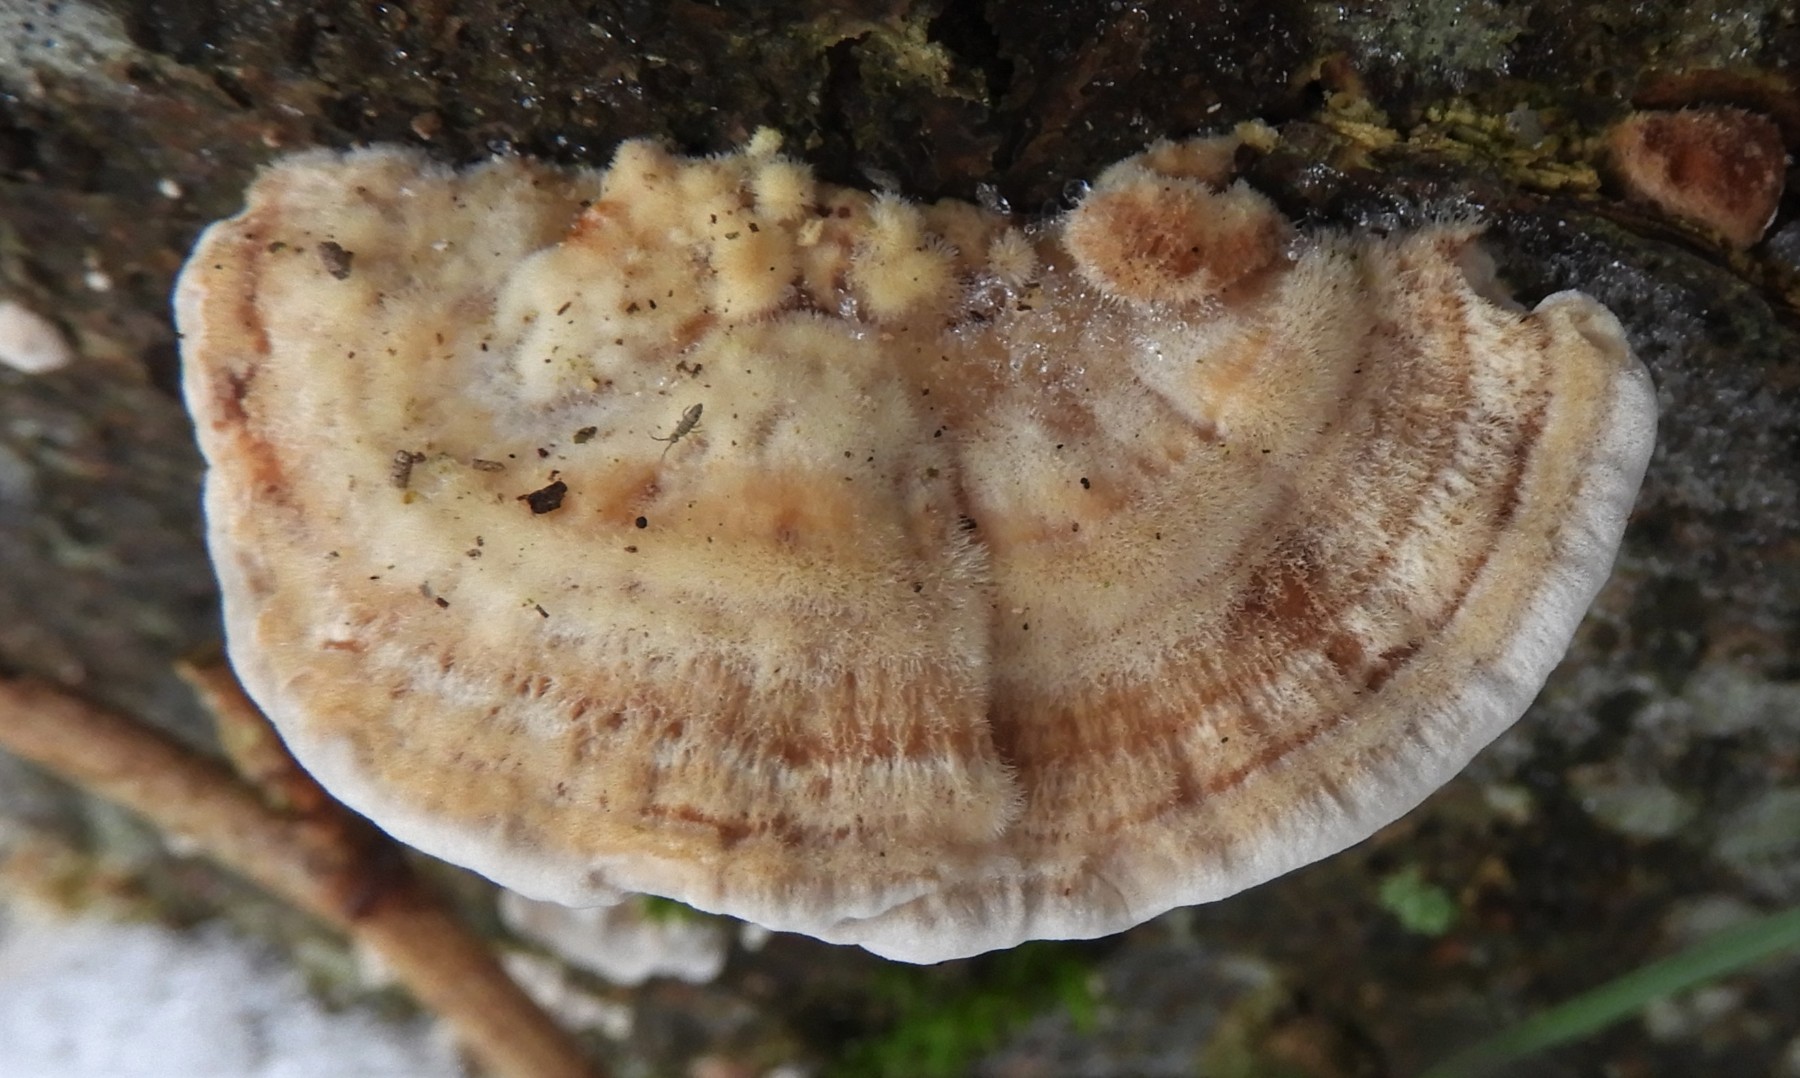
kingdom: Fungi
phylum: Basidiomycota
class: Agaricomycetes
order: Polyporales
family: Polyporaceae
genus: Trametes
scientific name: Trametes ochracea
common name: bæltet læderporesvamp
